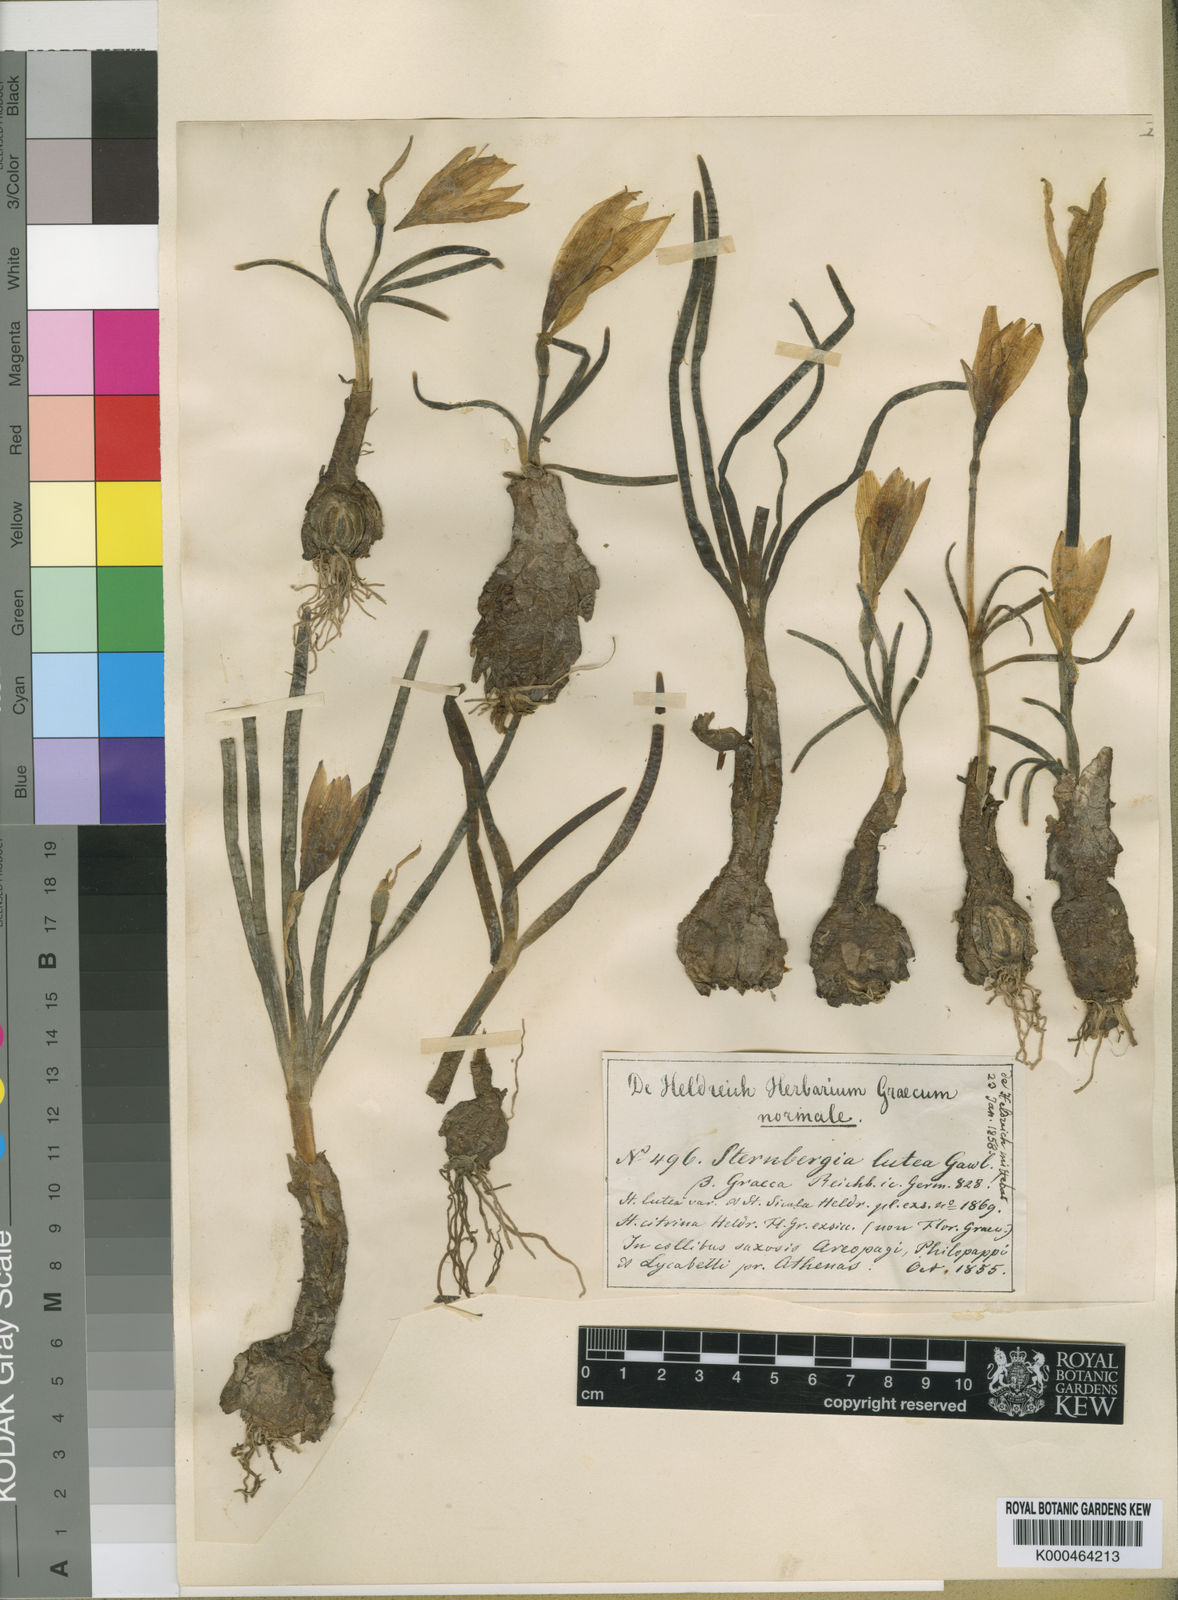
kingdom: Plantae
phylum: Tracheophyta
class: Liliopsida
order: Asparagales
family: Amaryllidaceae
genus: Sternbergia
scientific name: Sternbergia
